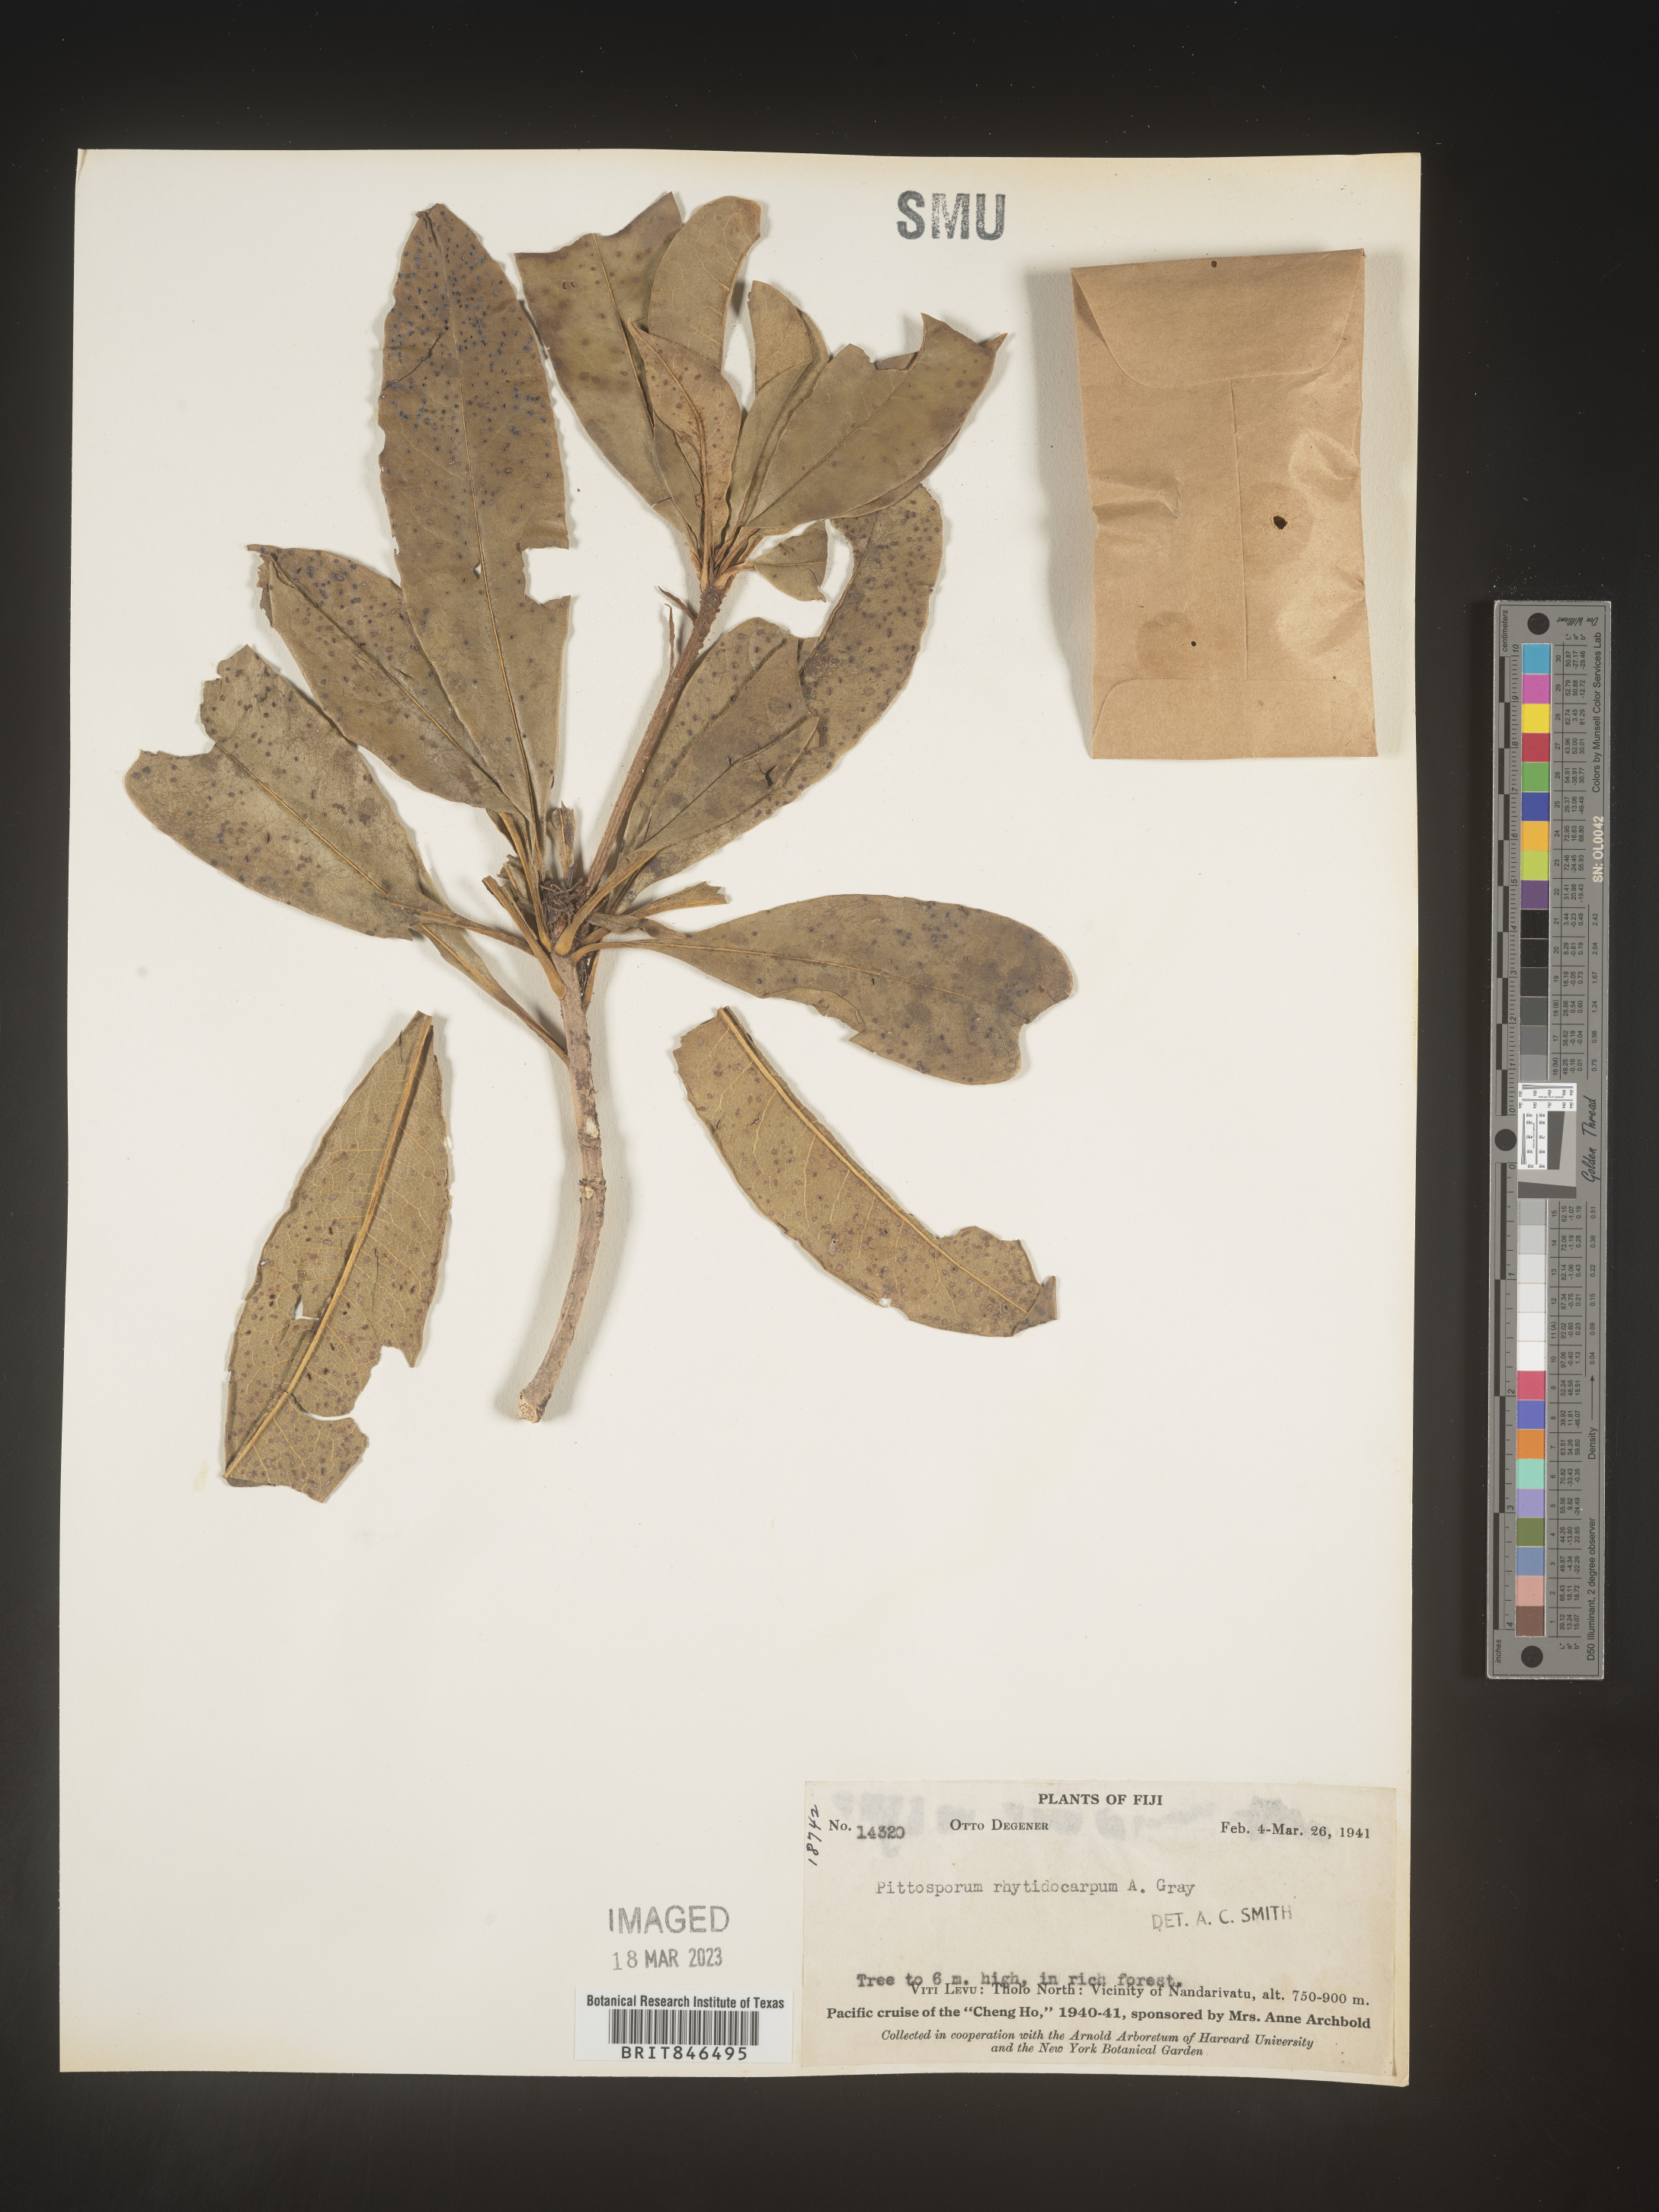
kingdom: Plantae
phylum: Tracheophyta
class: Magnoliopsida
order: Apiales
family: Pittosporaceae
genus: Pittosporum
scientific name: Pittosporum
